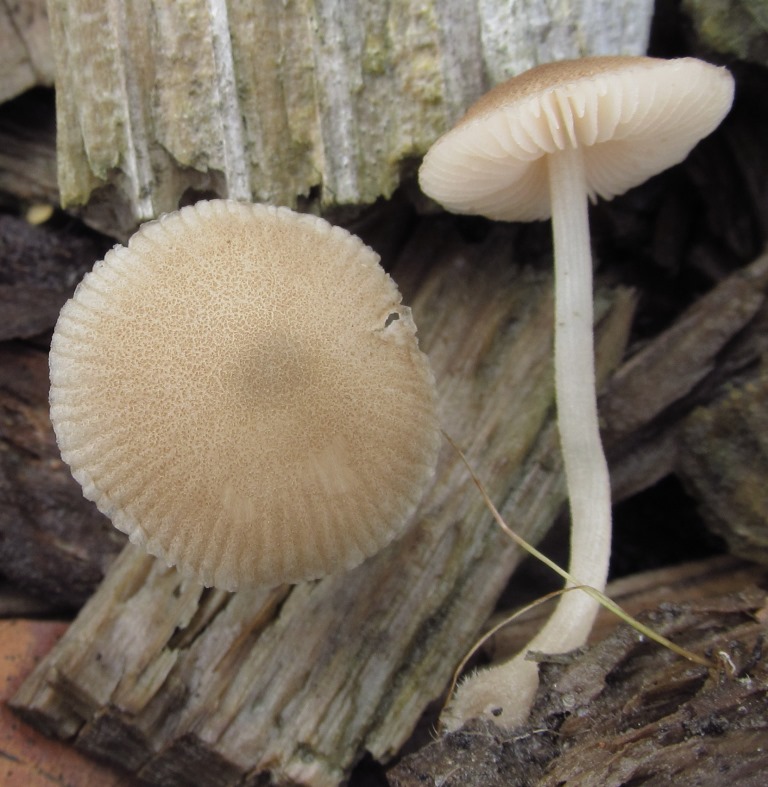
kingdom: Fungi
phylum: Basidiomycota
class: Agaricomycetes
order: Agaricales
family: Pluteaceae
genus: Pluteus
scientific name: Pluteus semibulbosus
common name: knoldet skærmhat
